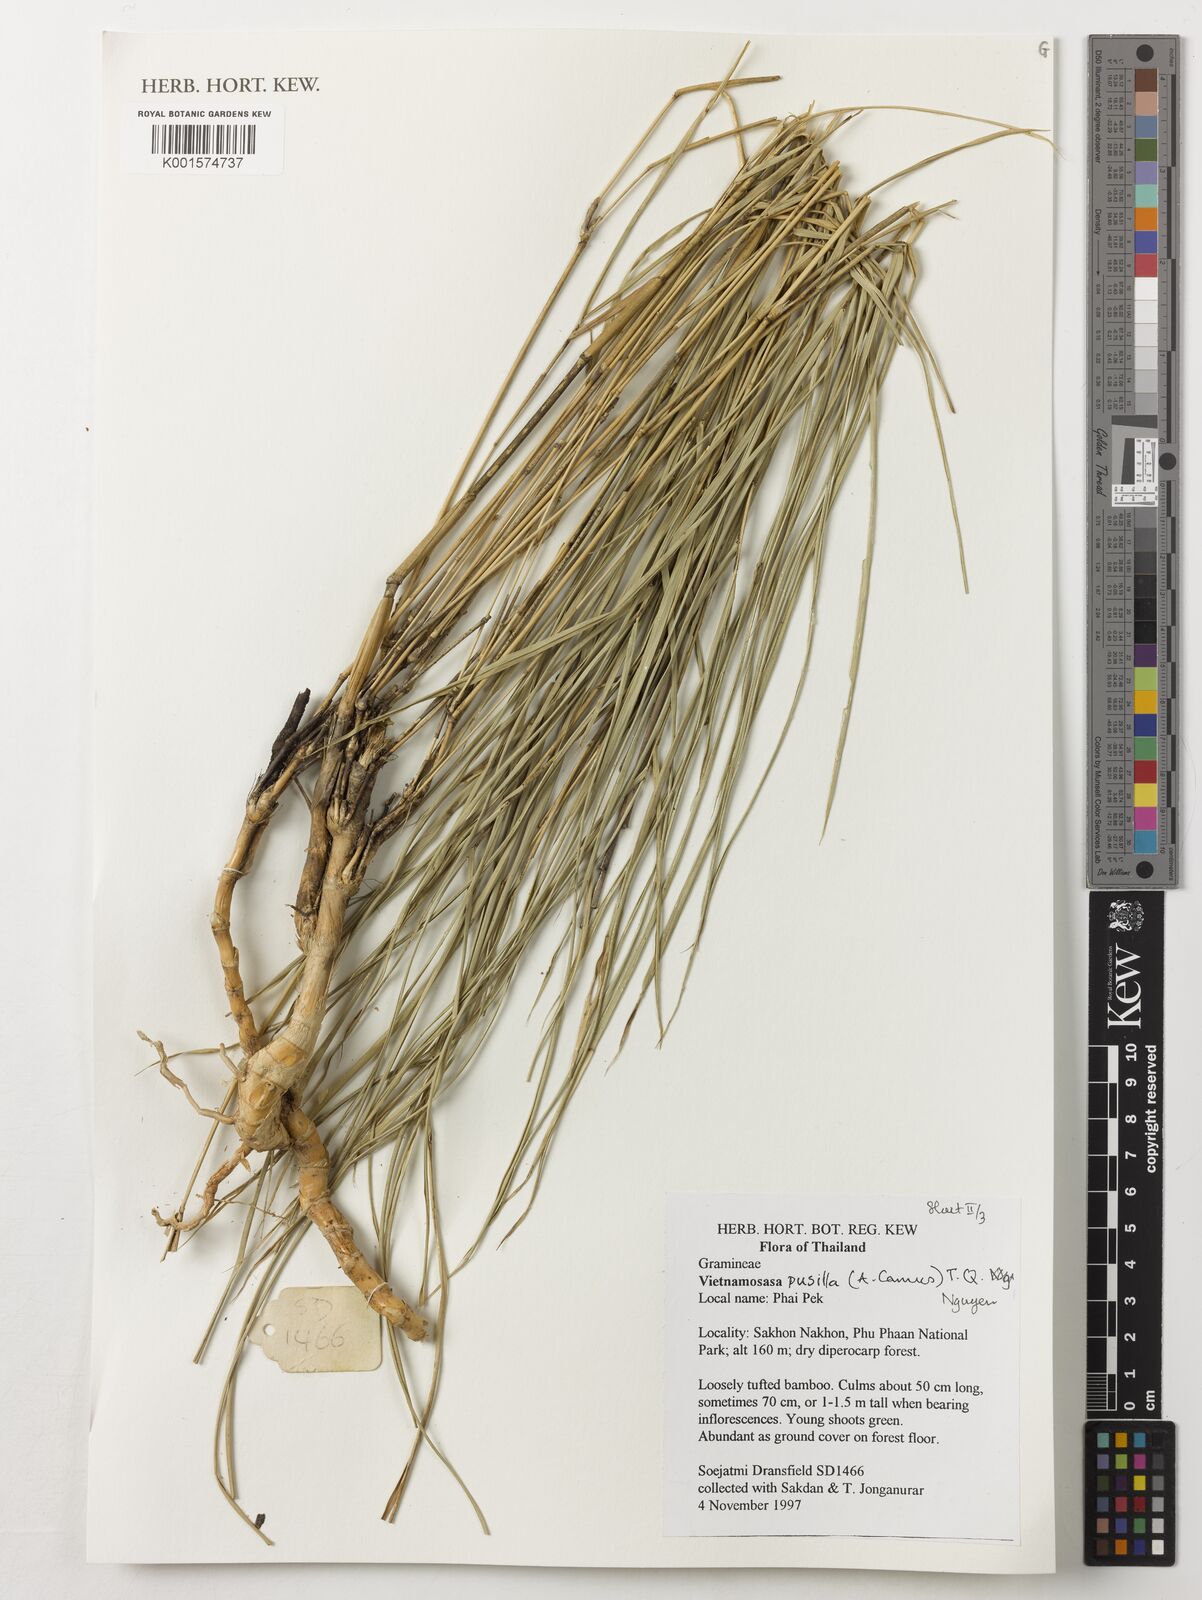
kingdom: Plantae
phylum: Tracheophyta
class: Liliopsida
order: Poales
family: Poaceae
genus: Vietnamosasa
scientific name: Vietnamosasa pusilla
